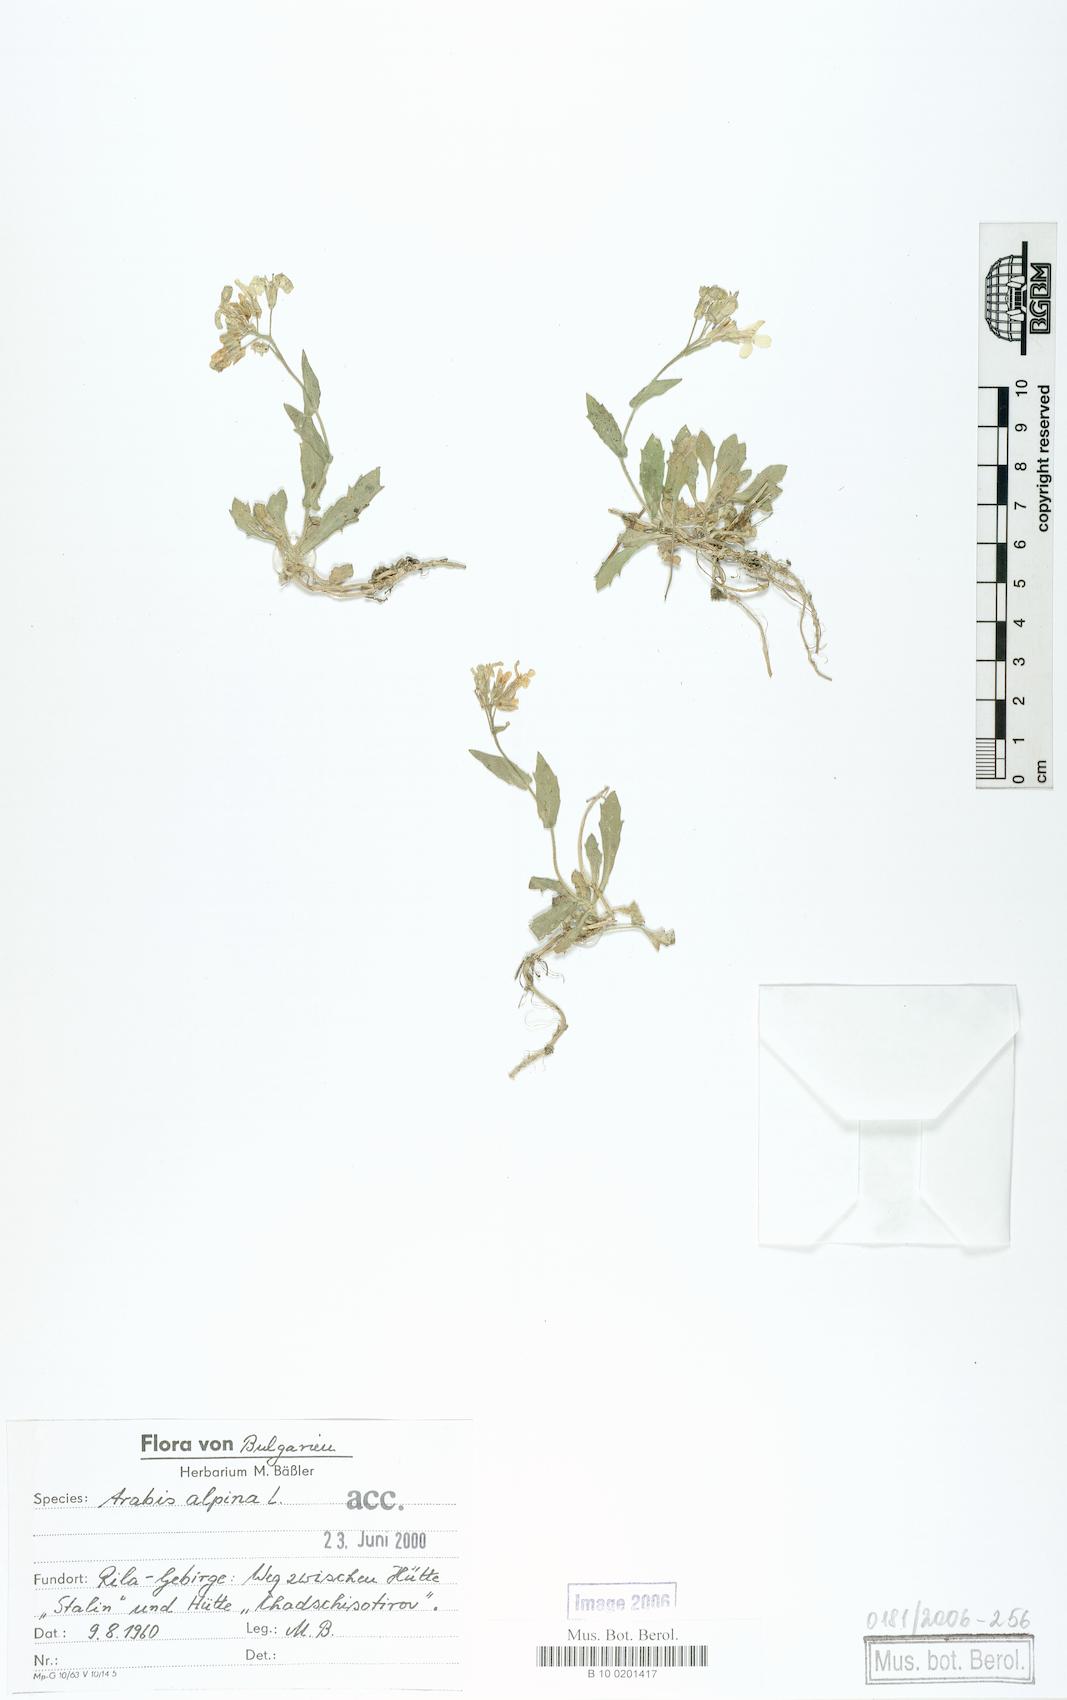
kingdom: Plantae
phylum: Tracheophyta
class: Magnoliopsida
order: Brassicales
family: Brassicaceae
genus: Arabis
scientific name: Arabis alpina
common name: Alpine rock-cress
